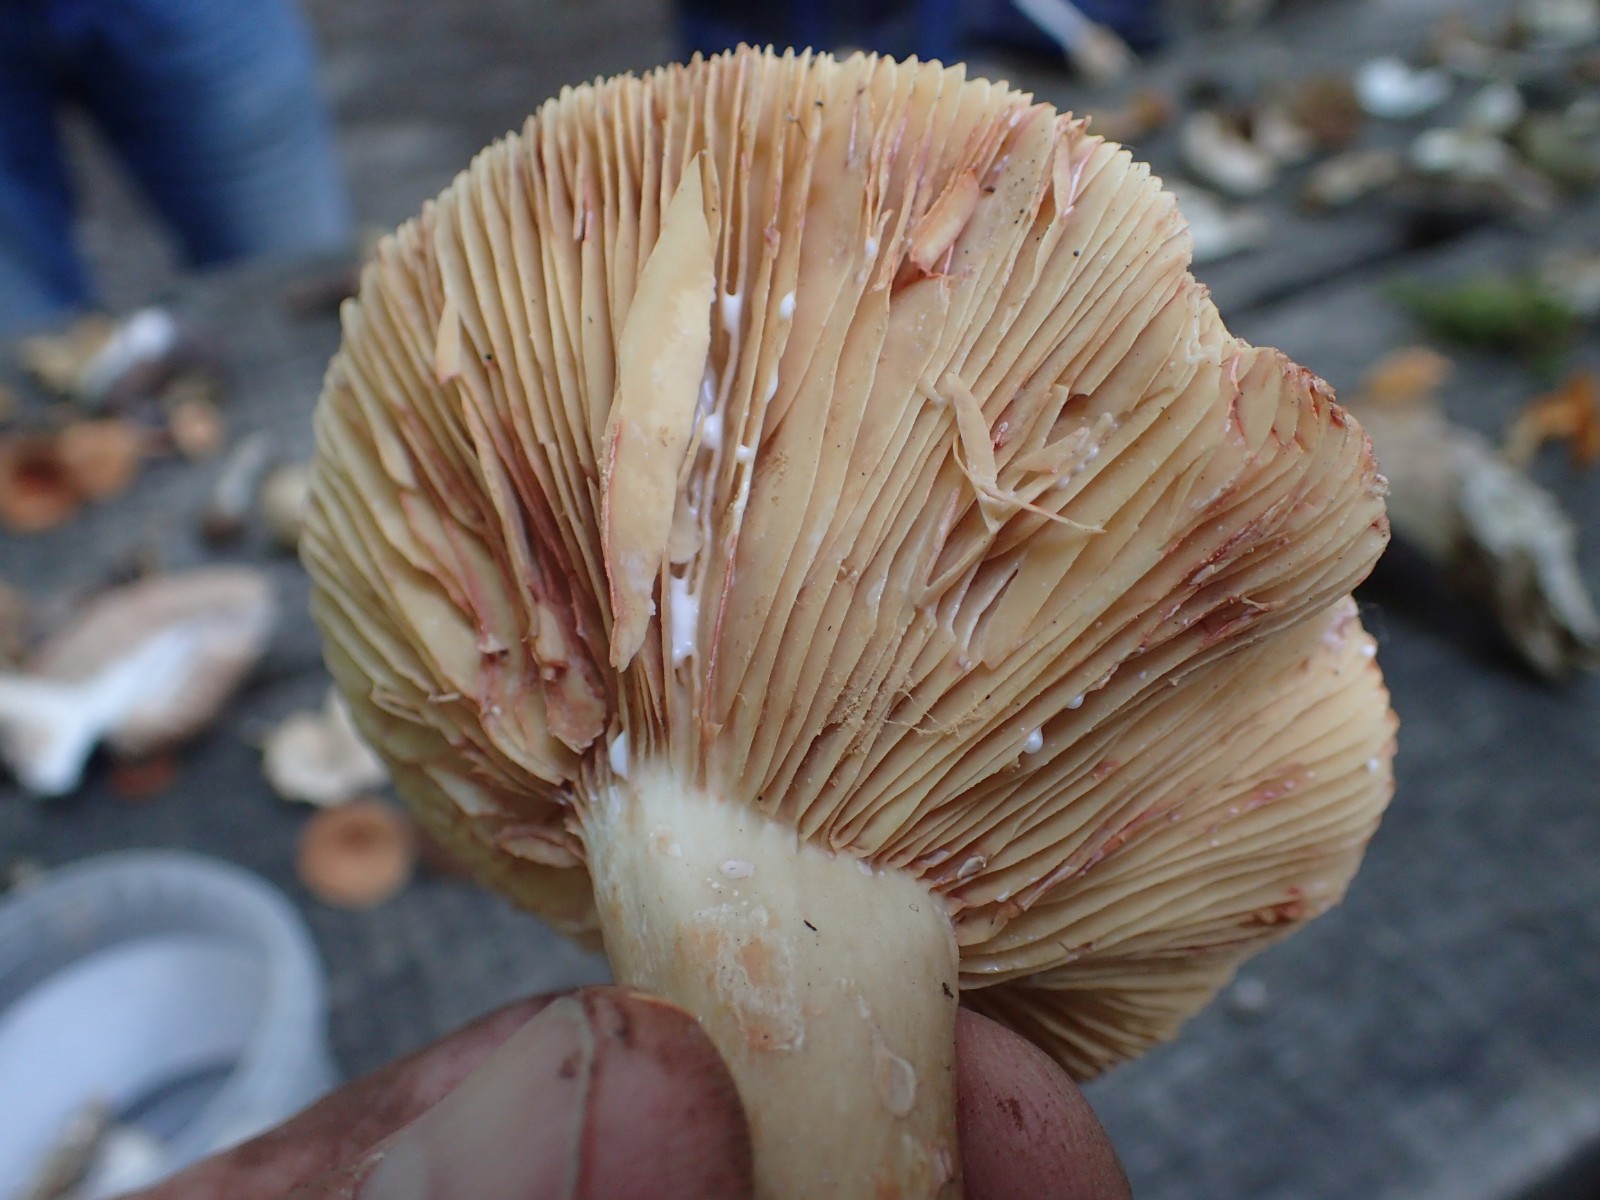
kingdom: Fungi
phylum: Basidiomycota
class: Agaricomycetes
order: Russulales
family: Russulaceae
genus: Lactarius
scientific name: Lactarius pterosporus
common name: vingesporet mælkehat
